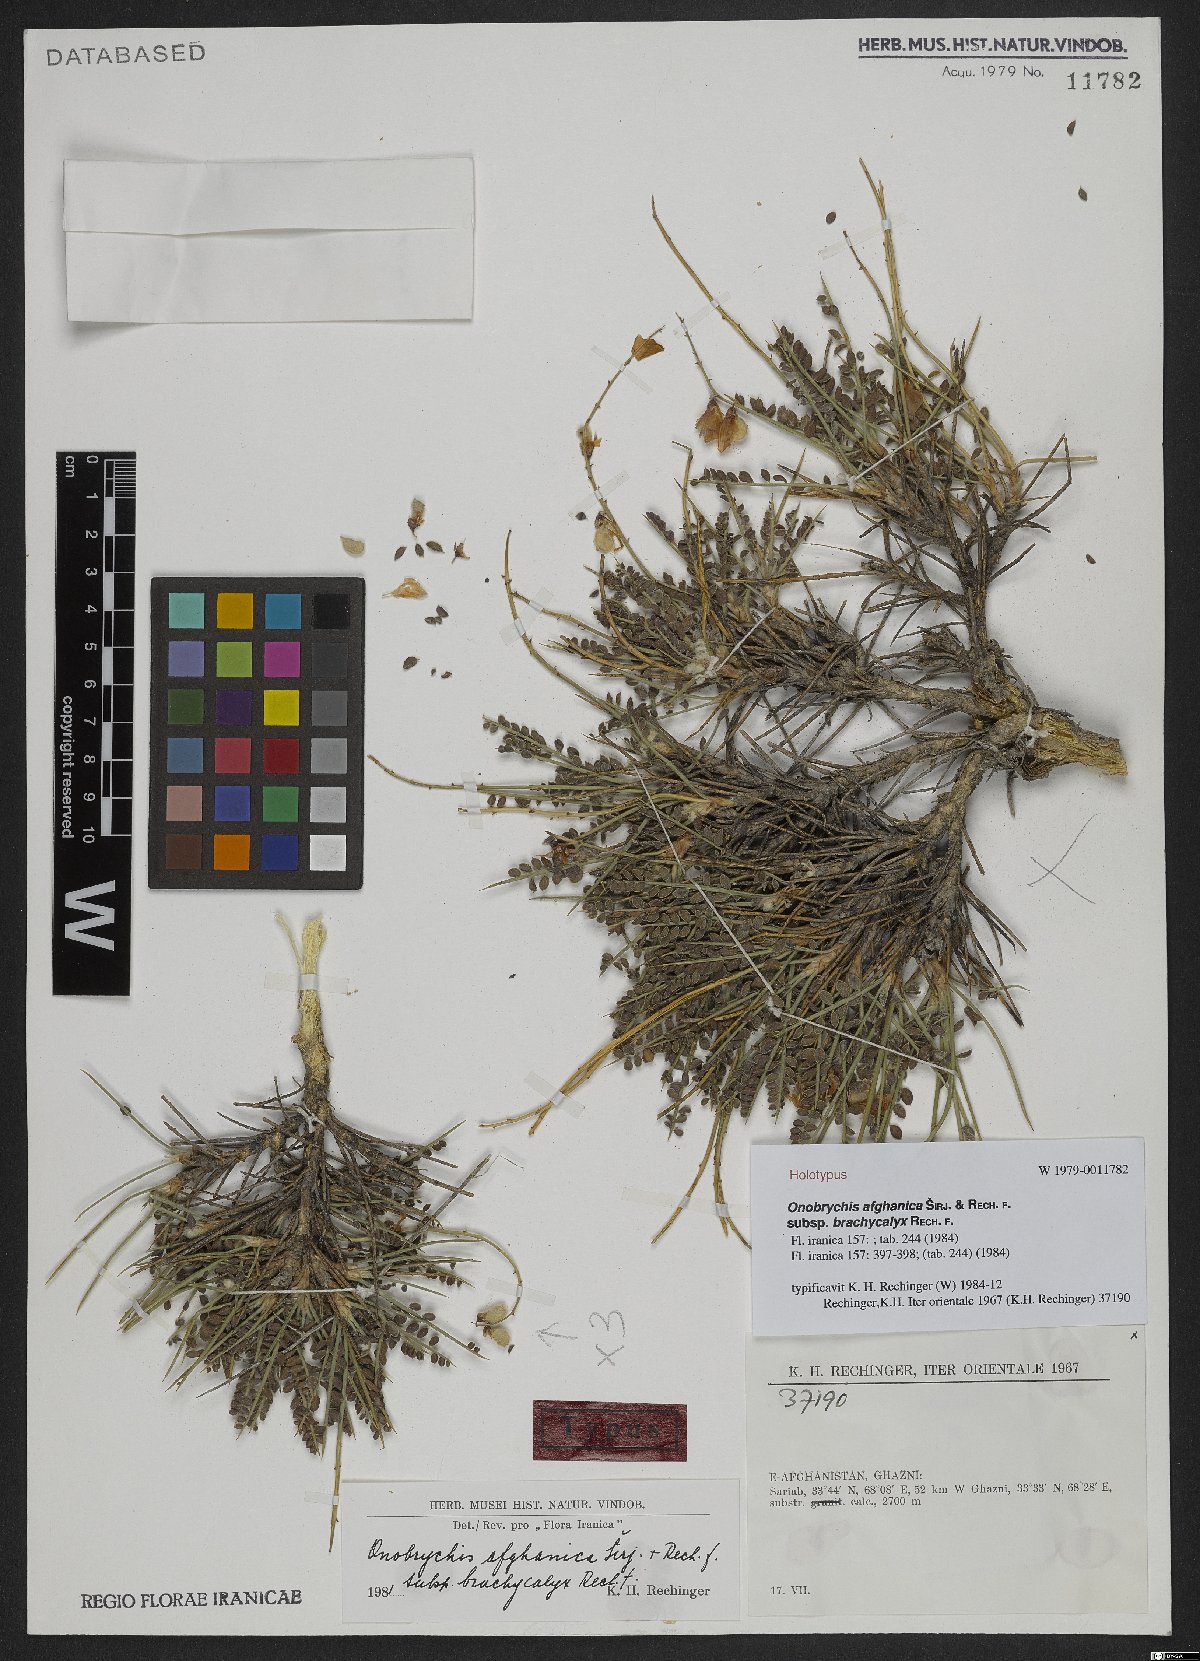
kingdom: Plantae
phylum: Tracheophyta
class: Magnoliopsida
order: Fabales
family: Fabaceae
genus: Onobrychis
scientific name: Onobrychis afghanica
